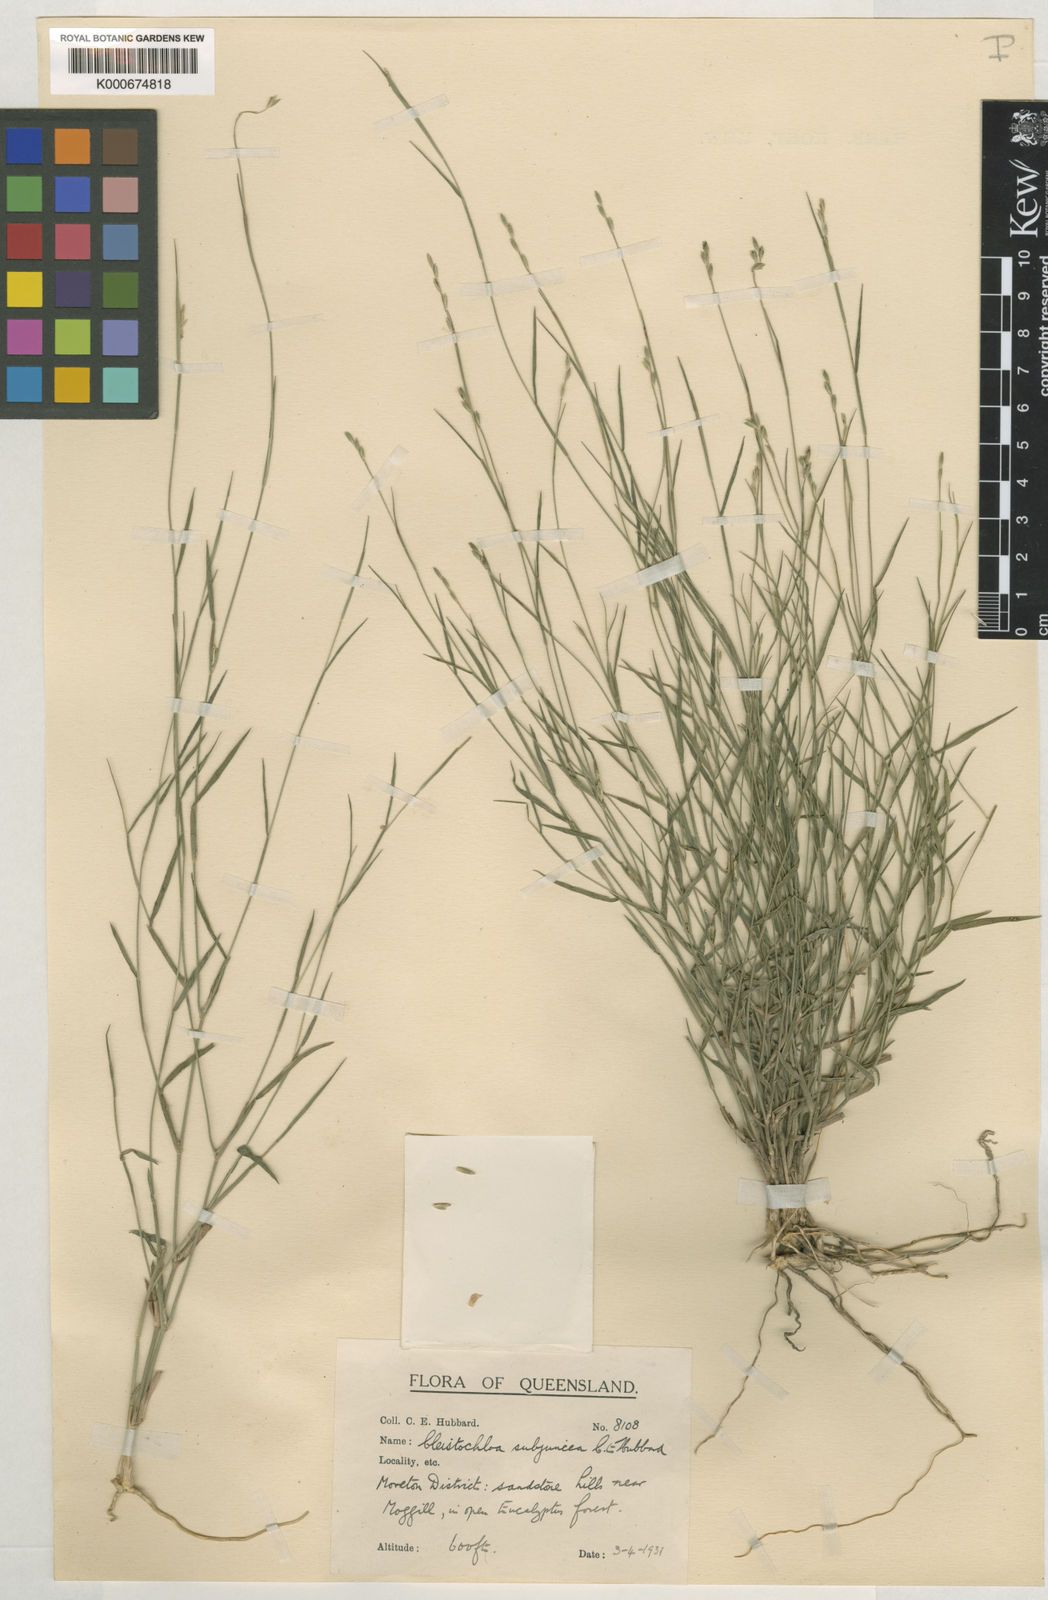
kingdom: Plantae
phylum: Tracheophyta
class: Liliopsida
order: Poales
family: Poaceae
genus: Cleistochloa
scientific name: Cleistochloa subjuncea
